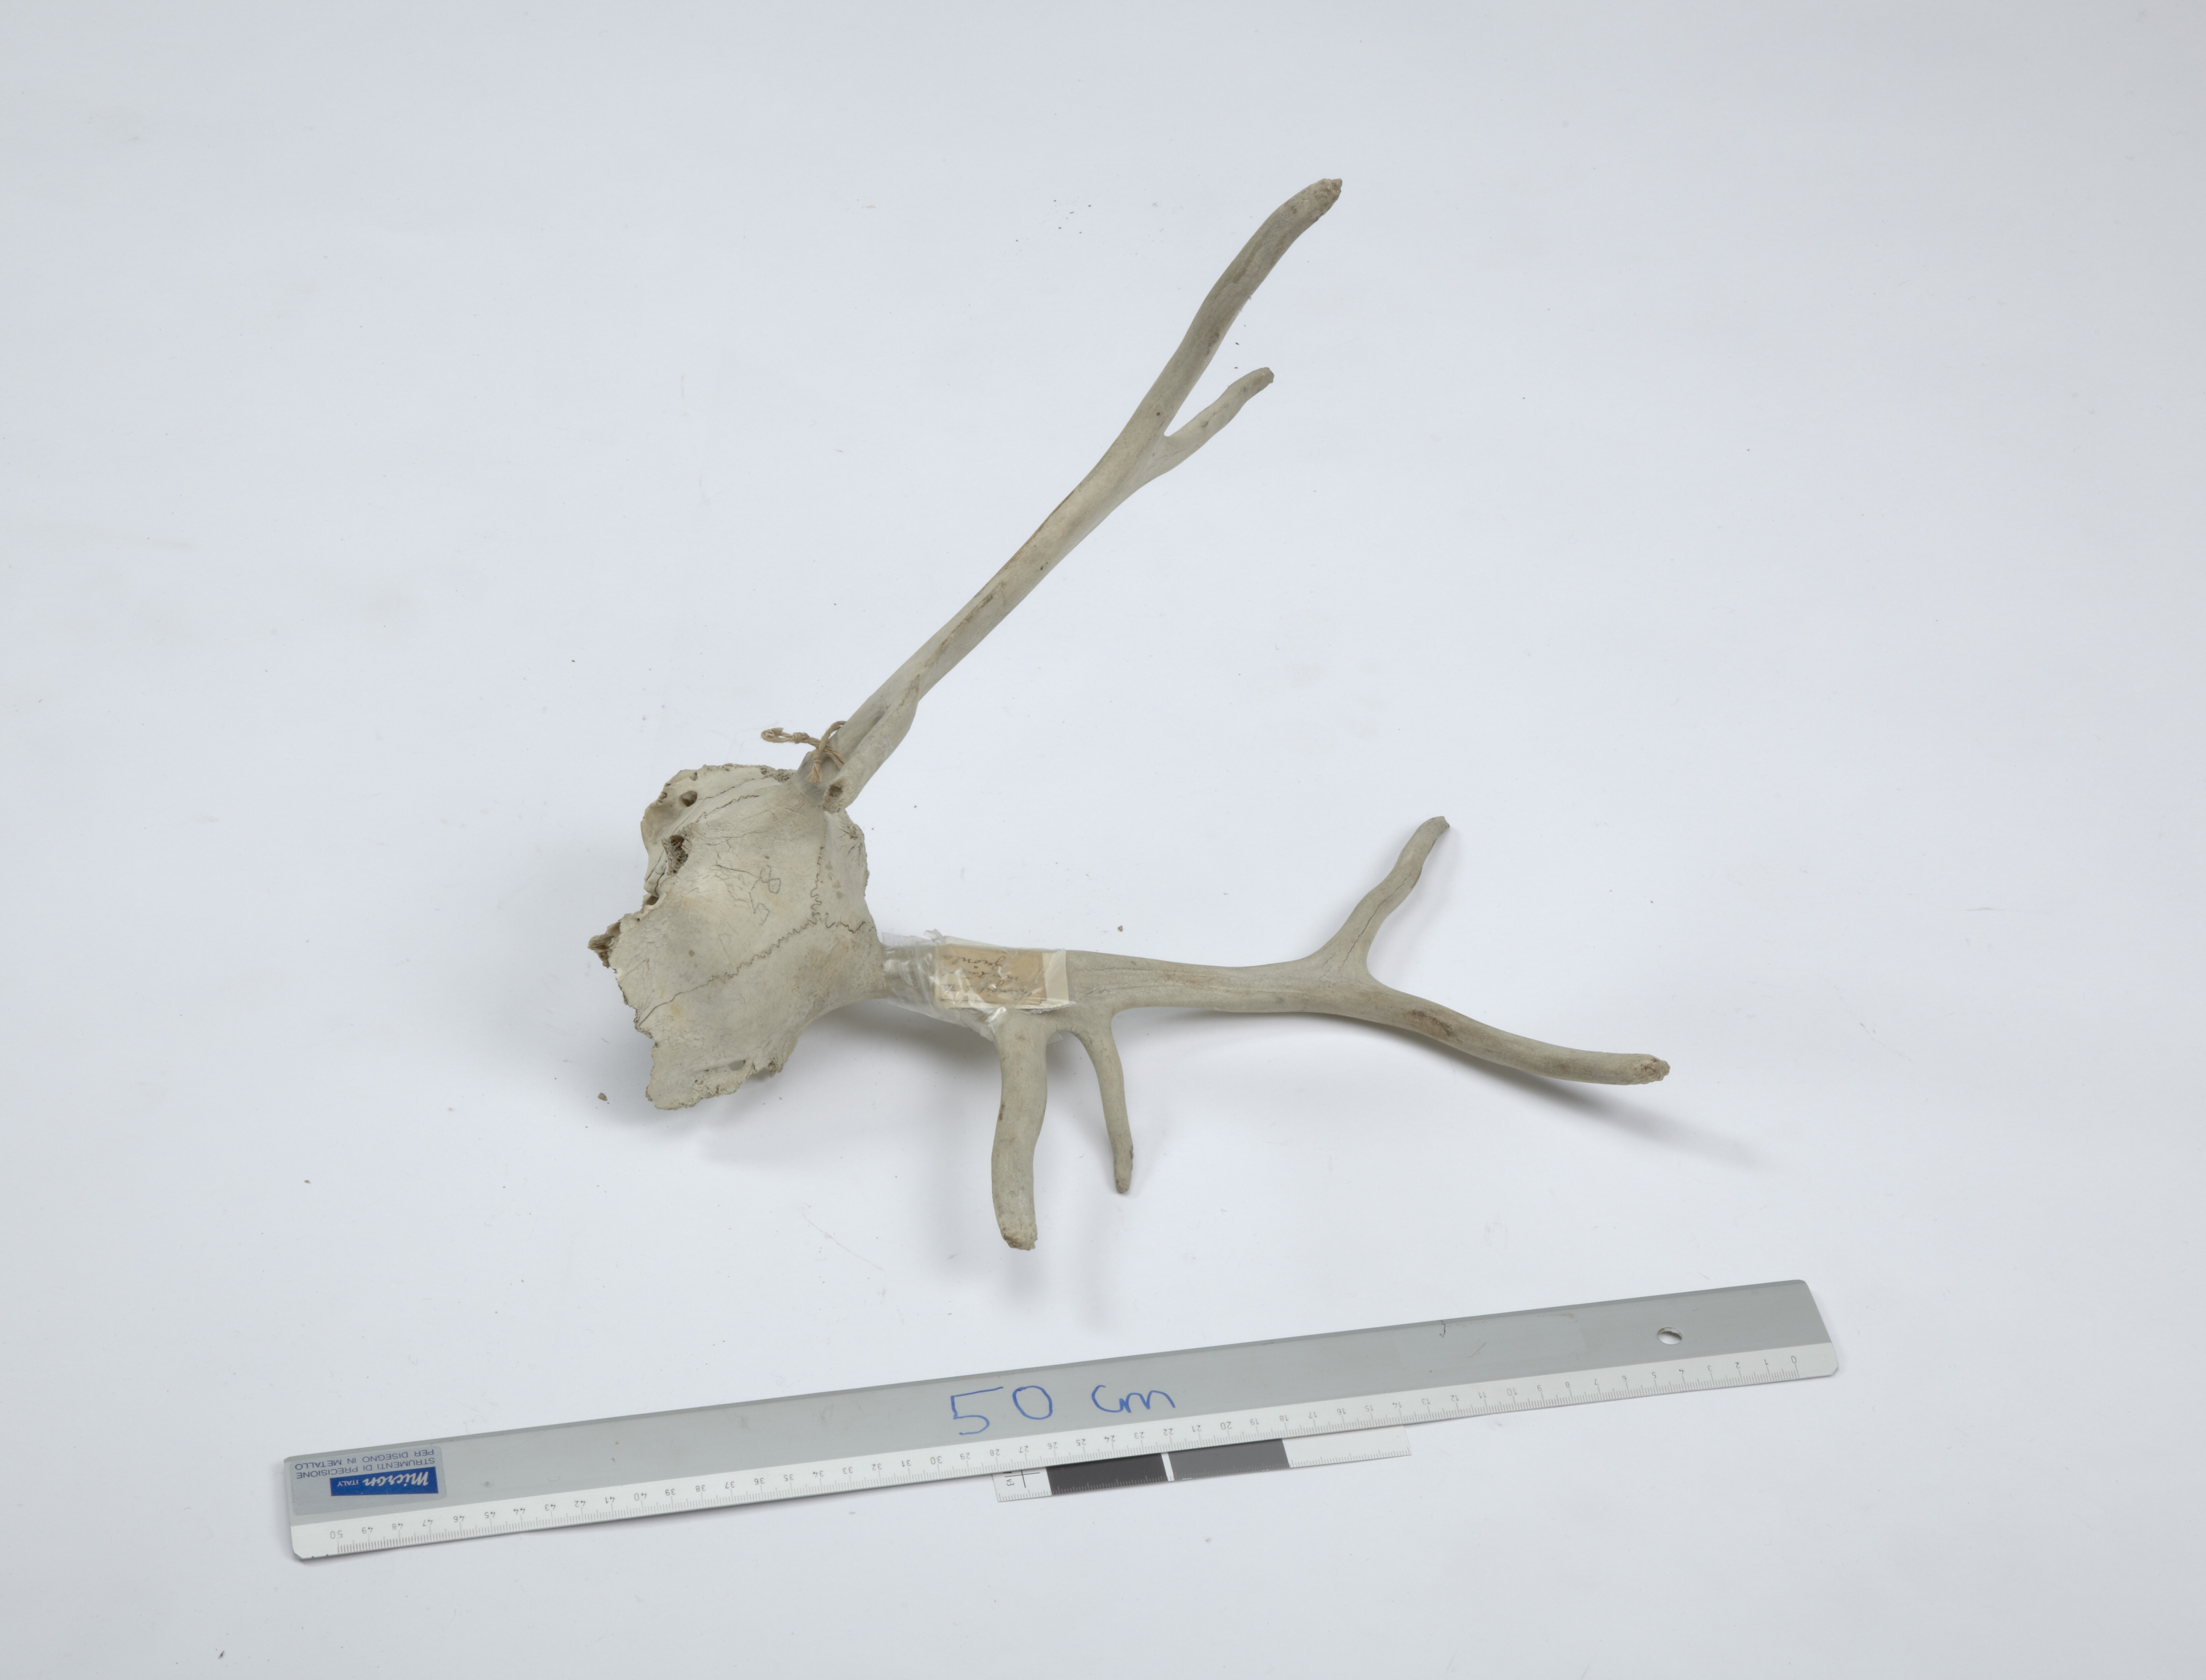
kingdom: Animalia
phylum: Chordata
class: Mammalia
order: Artiodactyla
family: Cervidae
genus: Rangifer
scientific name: Rangifer tarandus
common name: Reindeer
